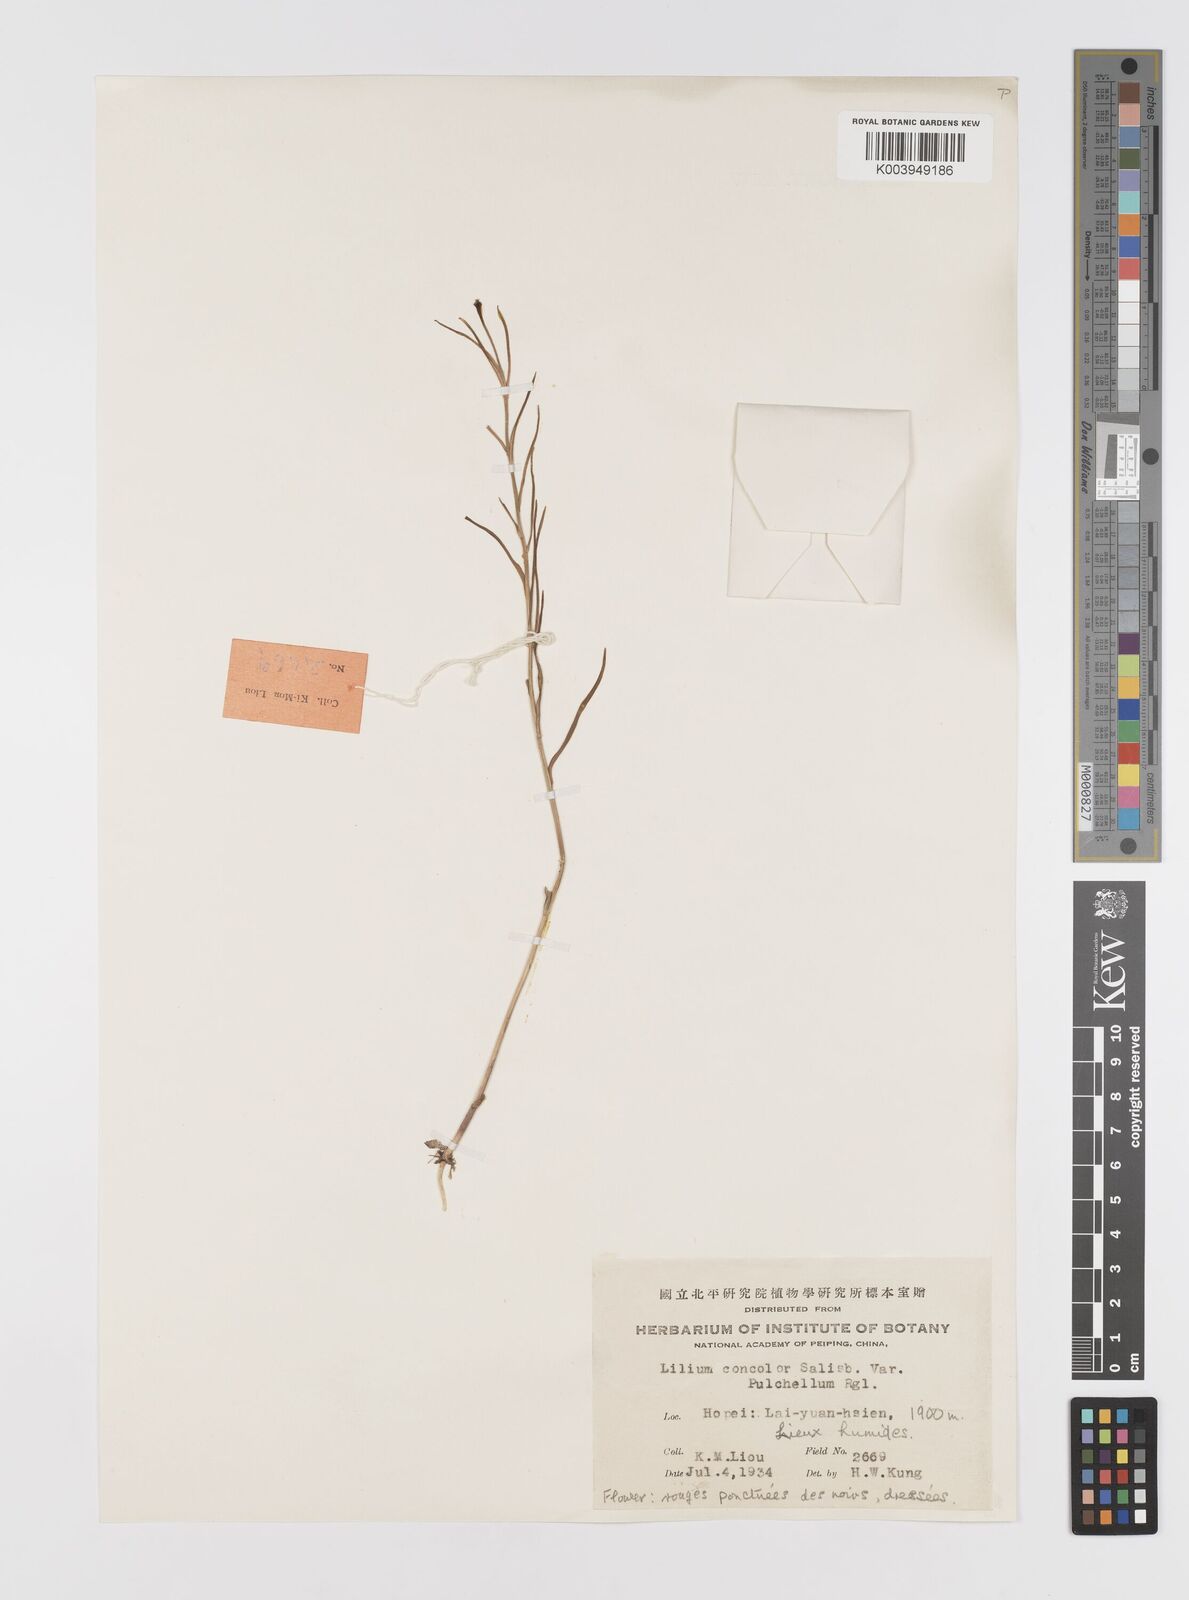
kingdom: Plantae
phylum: Tracheophyta
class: Liliopsida
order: Liliales
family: Liliaceae
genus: Lilium
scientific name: Lilium concolor
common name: Morning-star lily
